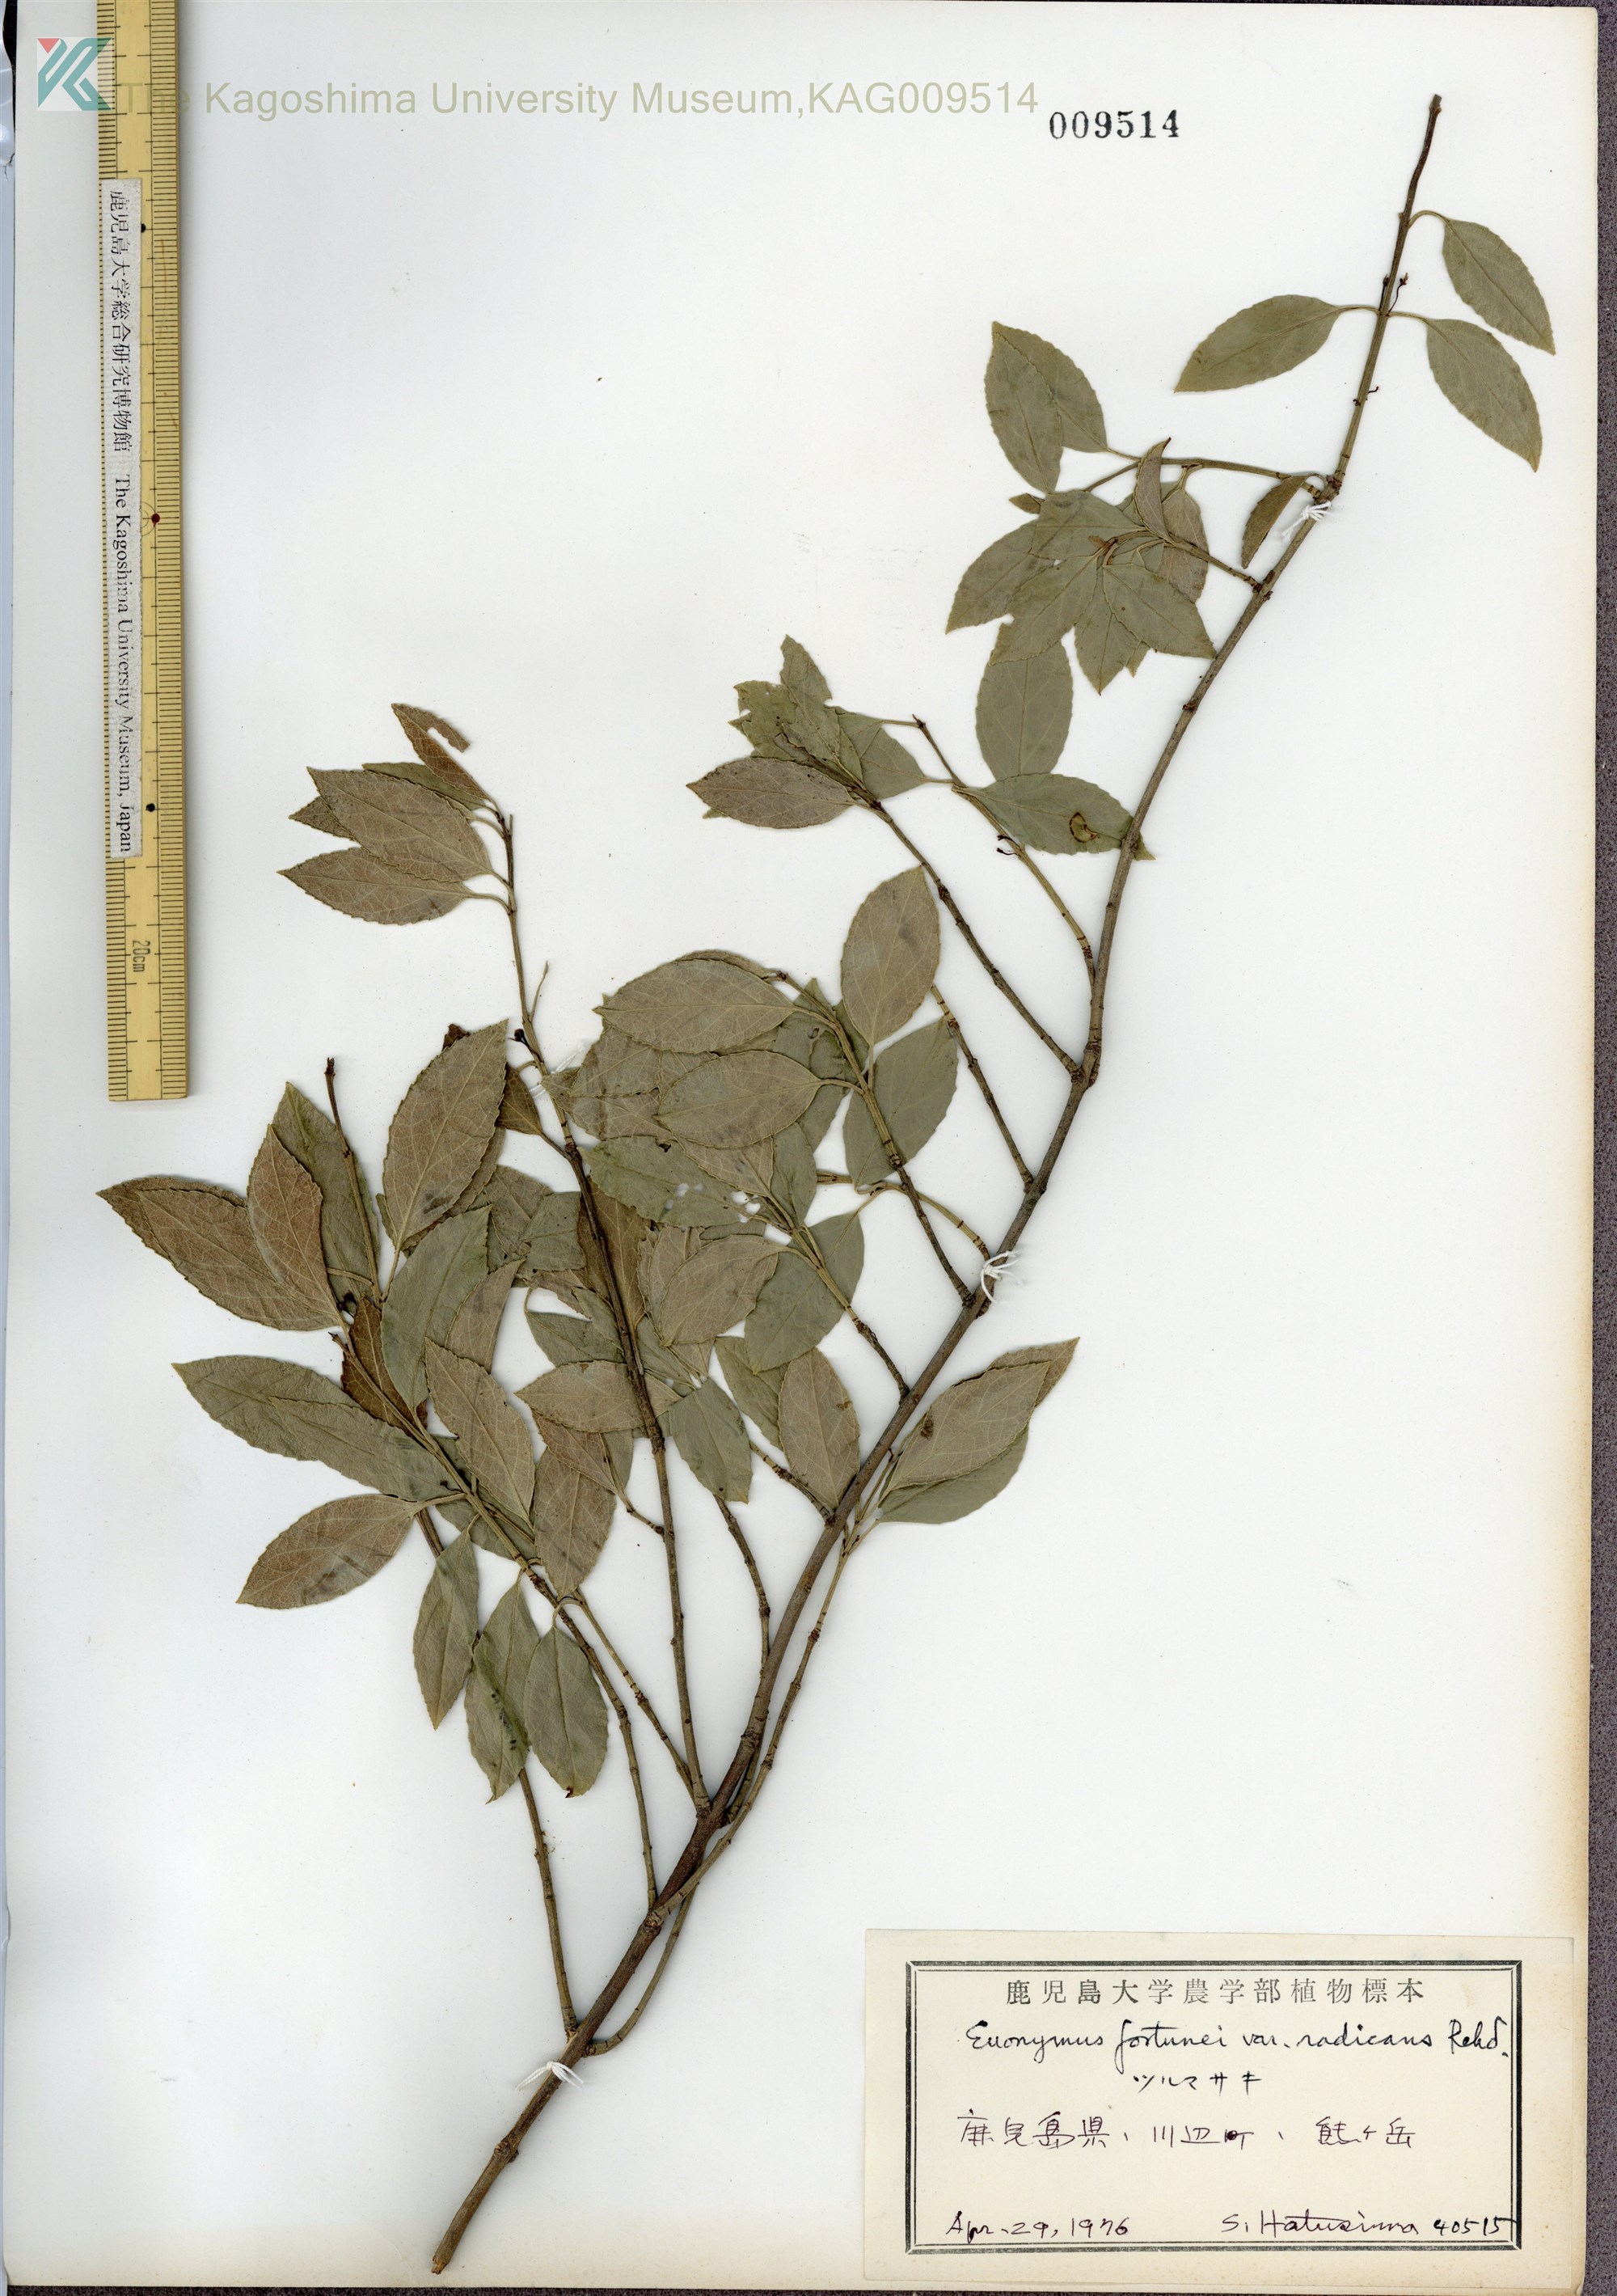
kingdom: Plantae
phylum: Tracheophyta
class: Magnoliopsida
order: Celastrales
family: Celastraceae
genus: Euonymus
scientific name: Euonymus fortunei
